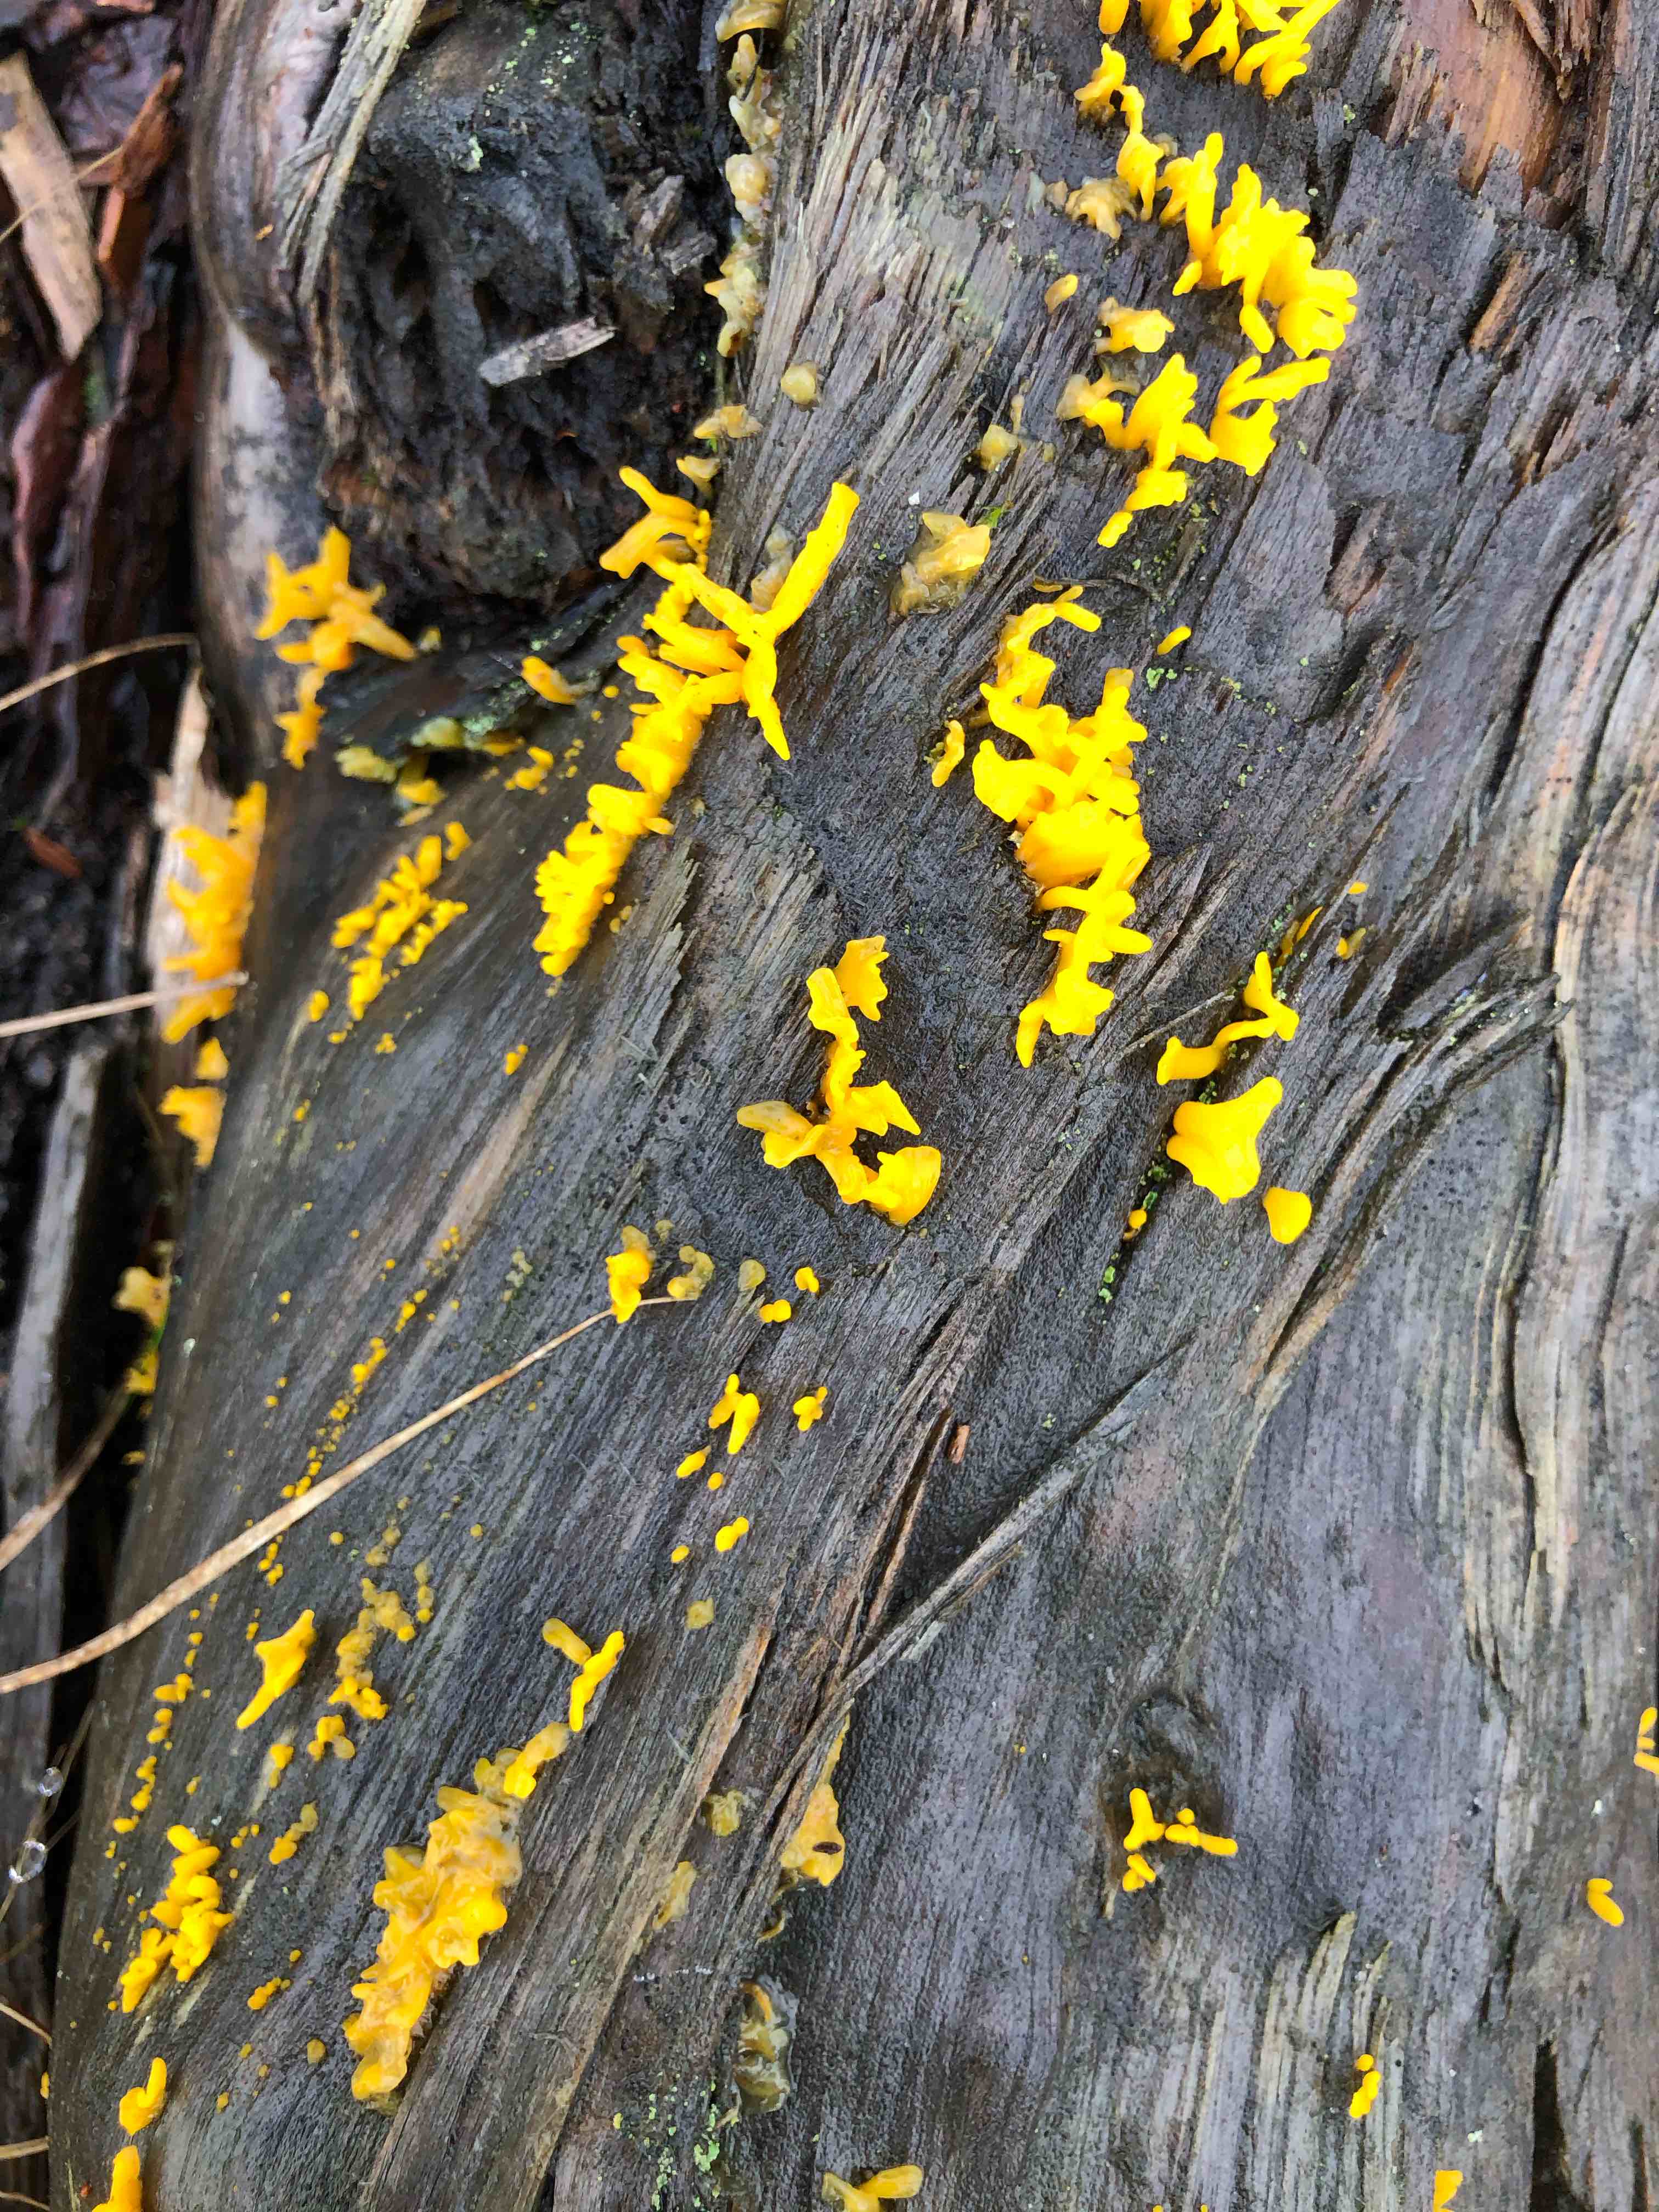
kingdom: Fungi
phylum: Basidiomycota
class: Dacrymycetes
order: Dacrymycetales
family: Dacrymycetaceae
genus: Calocera
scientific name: Calocera furcata
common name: fyrre-guldgaffel
